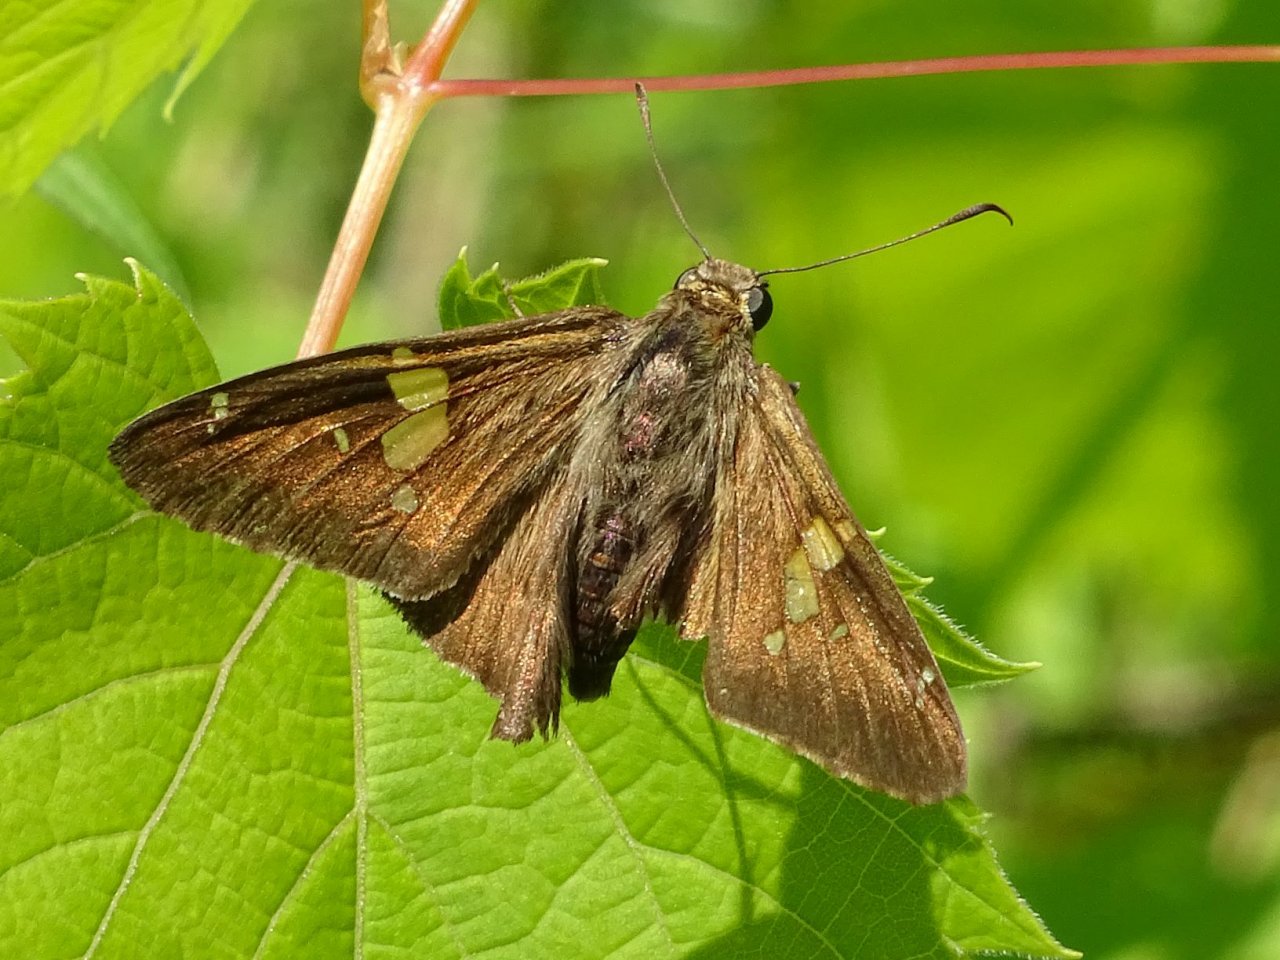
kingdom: Animalia
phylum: Arthropoda
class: Insecta
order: Lepidoptera
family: Hesperiidae
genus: Epargyreus
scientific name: Epargyreus clarus
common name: Silver-spotted Skipper
